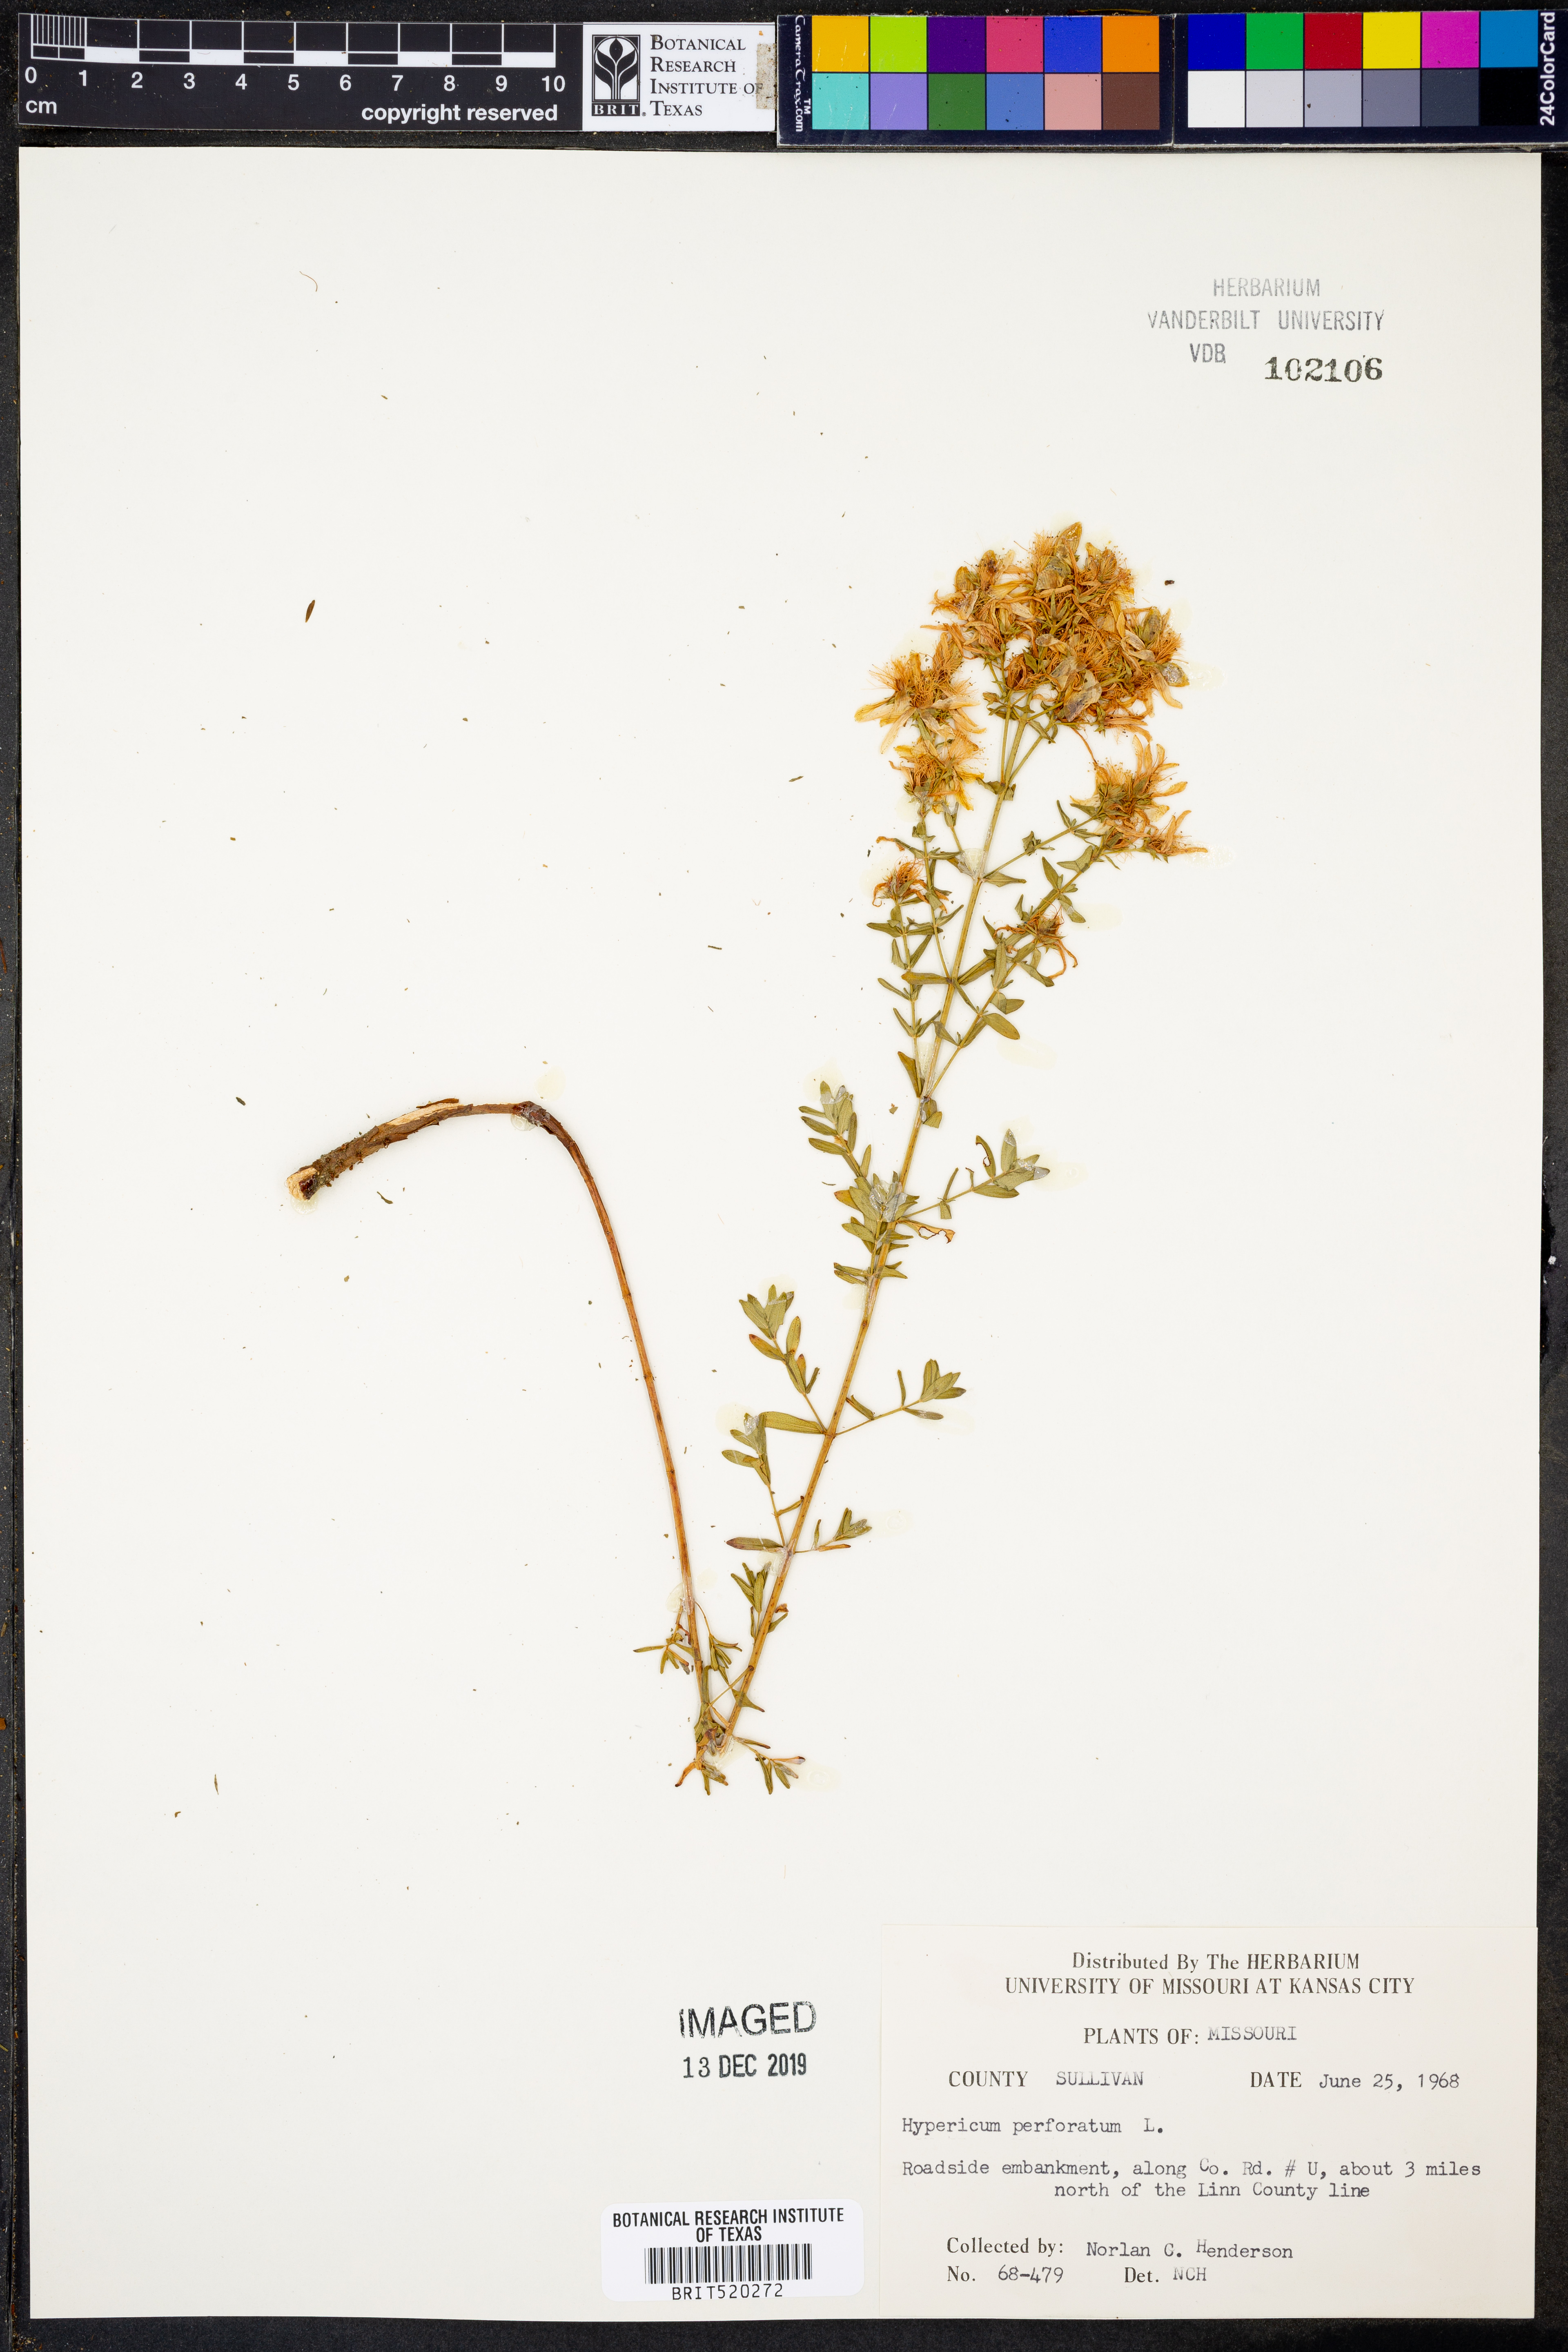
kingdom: Plantae
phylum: Tracheophyta
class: Magnoliopsida
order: Malpighiales
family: Hypericaceae
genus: Hypericum
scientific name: Hypericum perforatum
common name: Common st. johnswort
